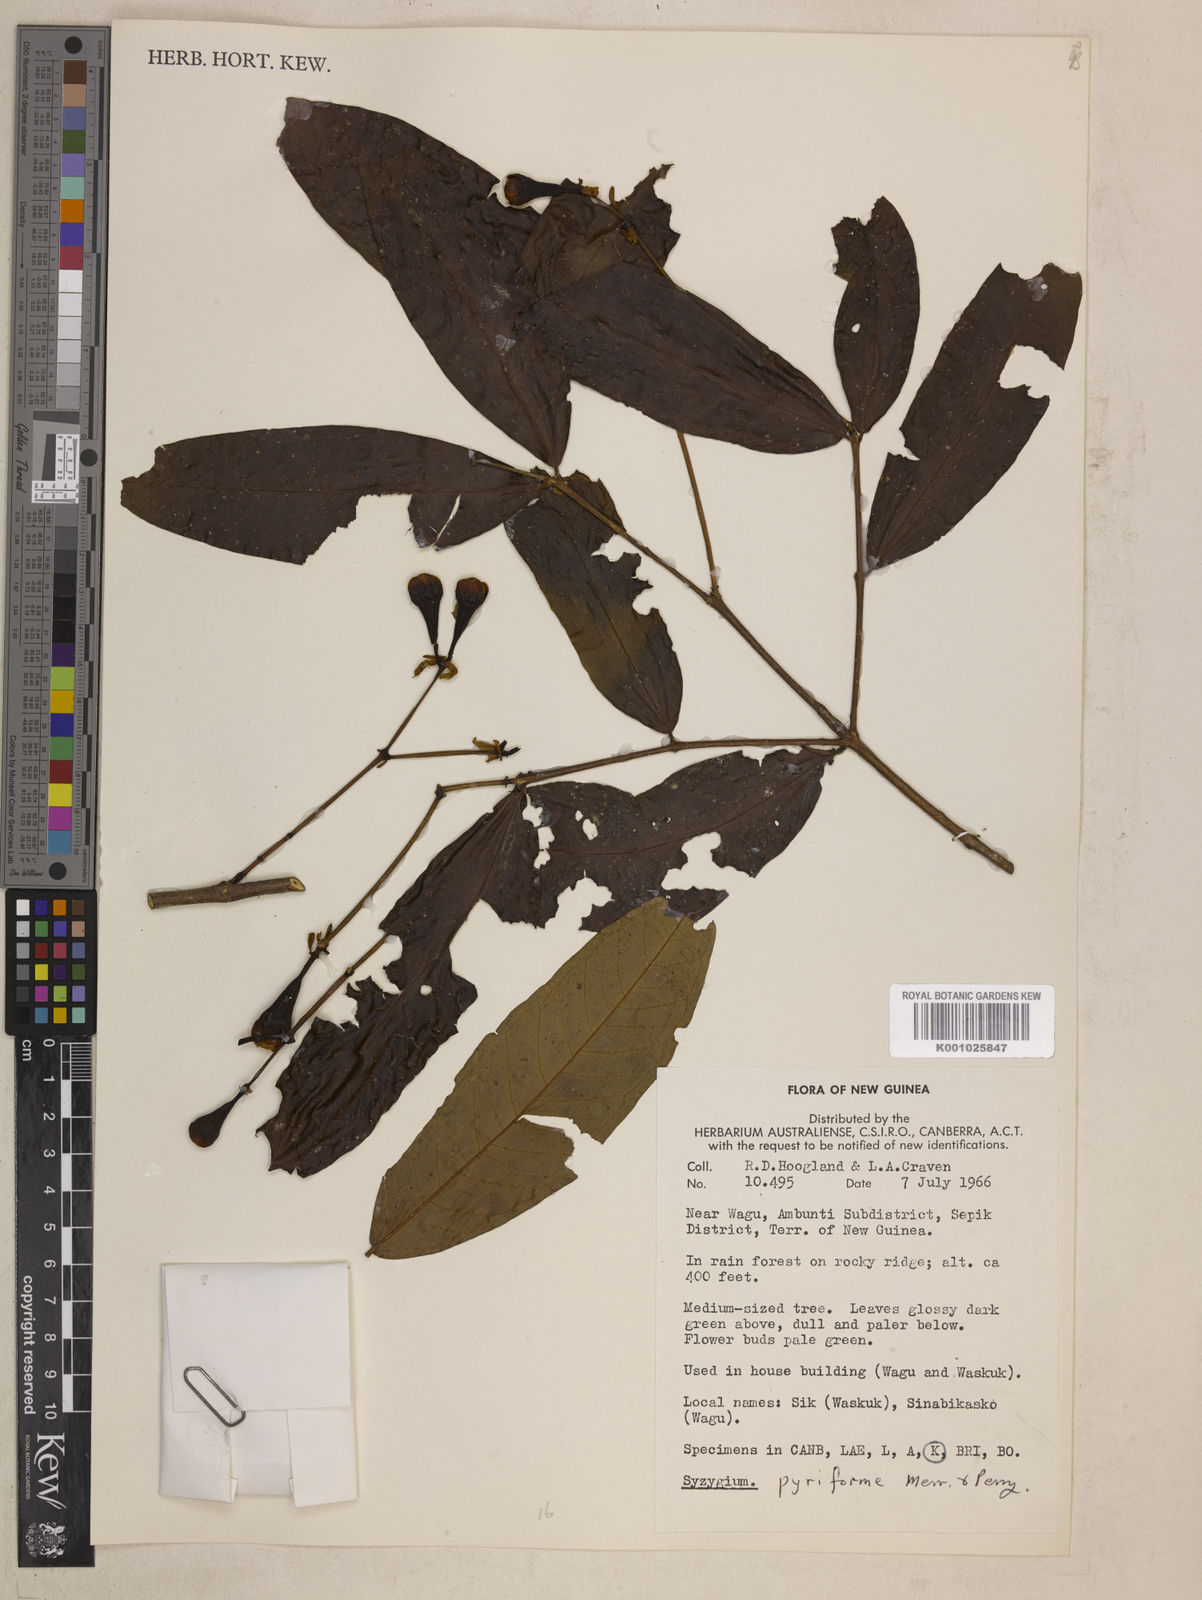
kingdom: Plantae
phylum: Tracheophyta
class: Magnoliopsida
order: Myrtales
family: Myrtaceae
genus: Syzygium
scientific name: Syzygium pyriforme
